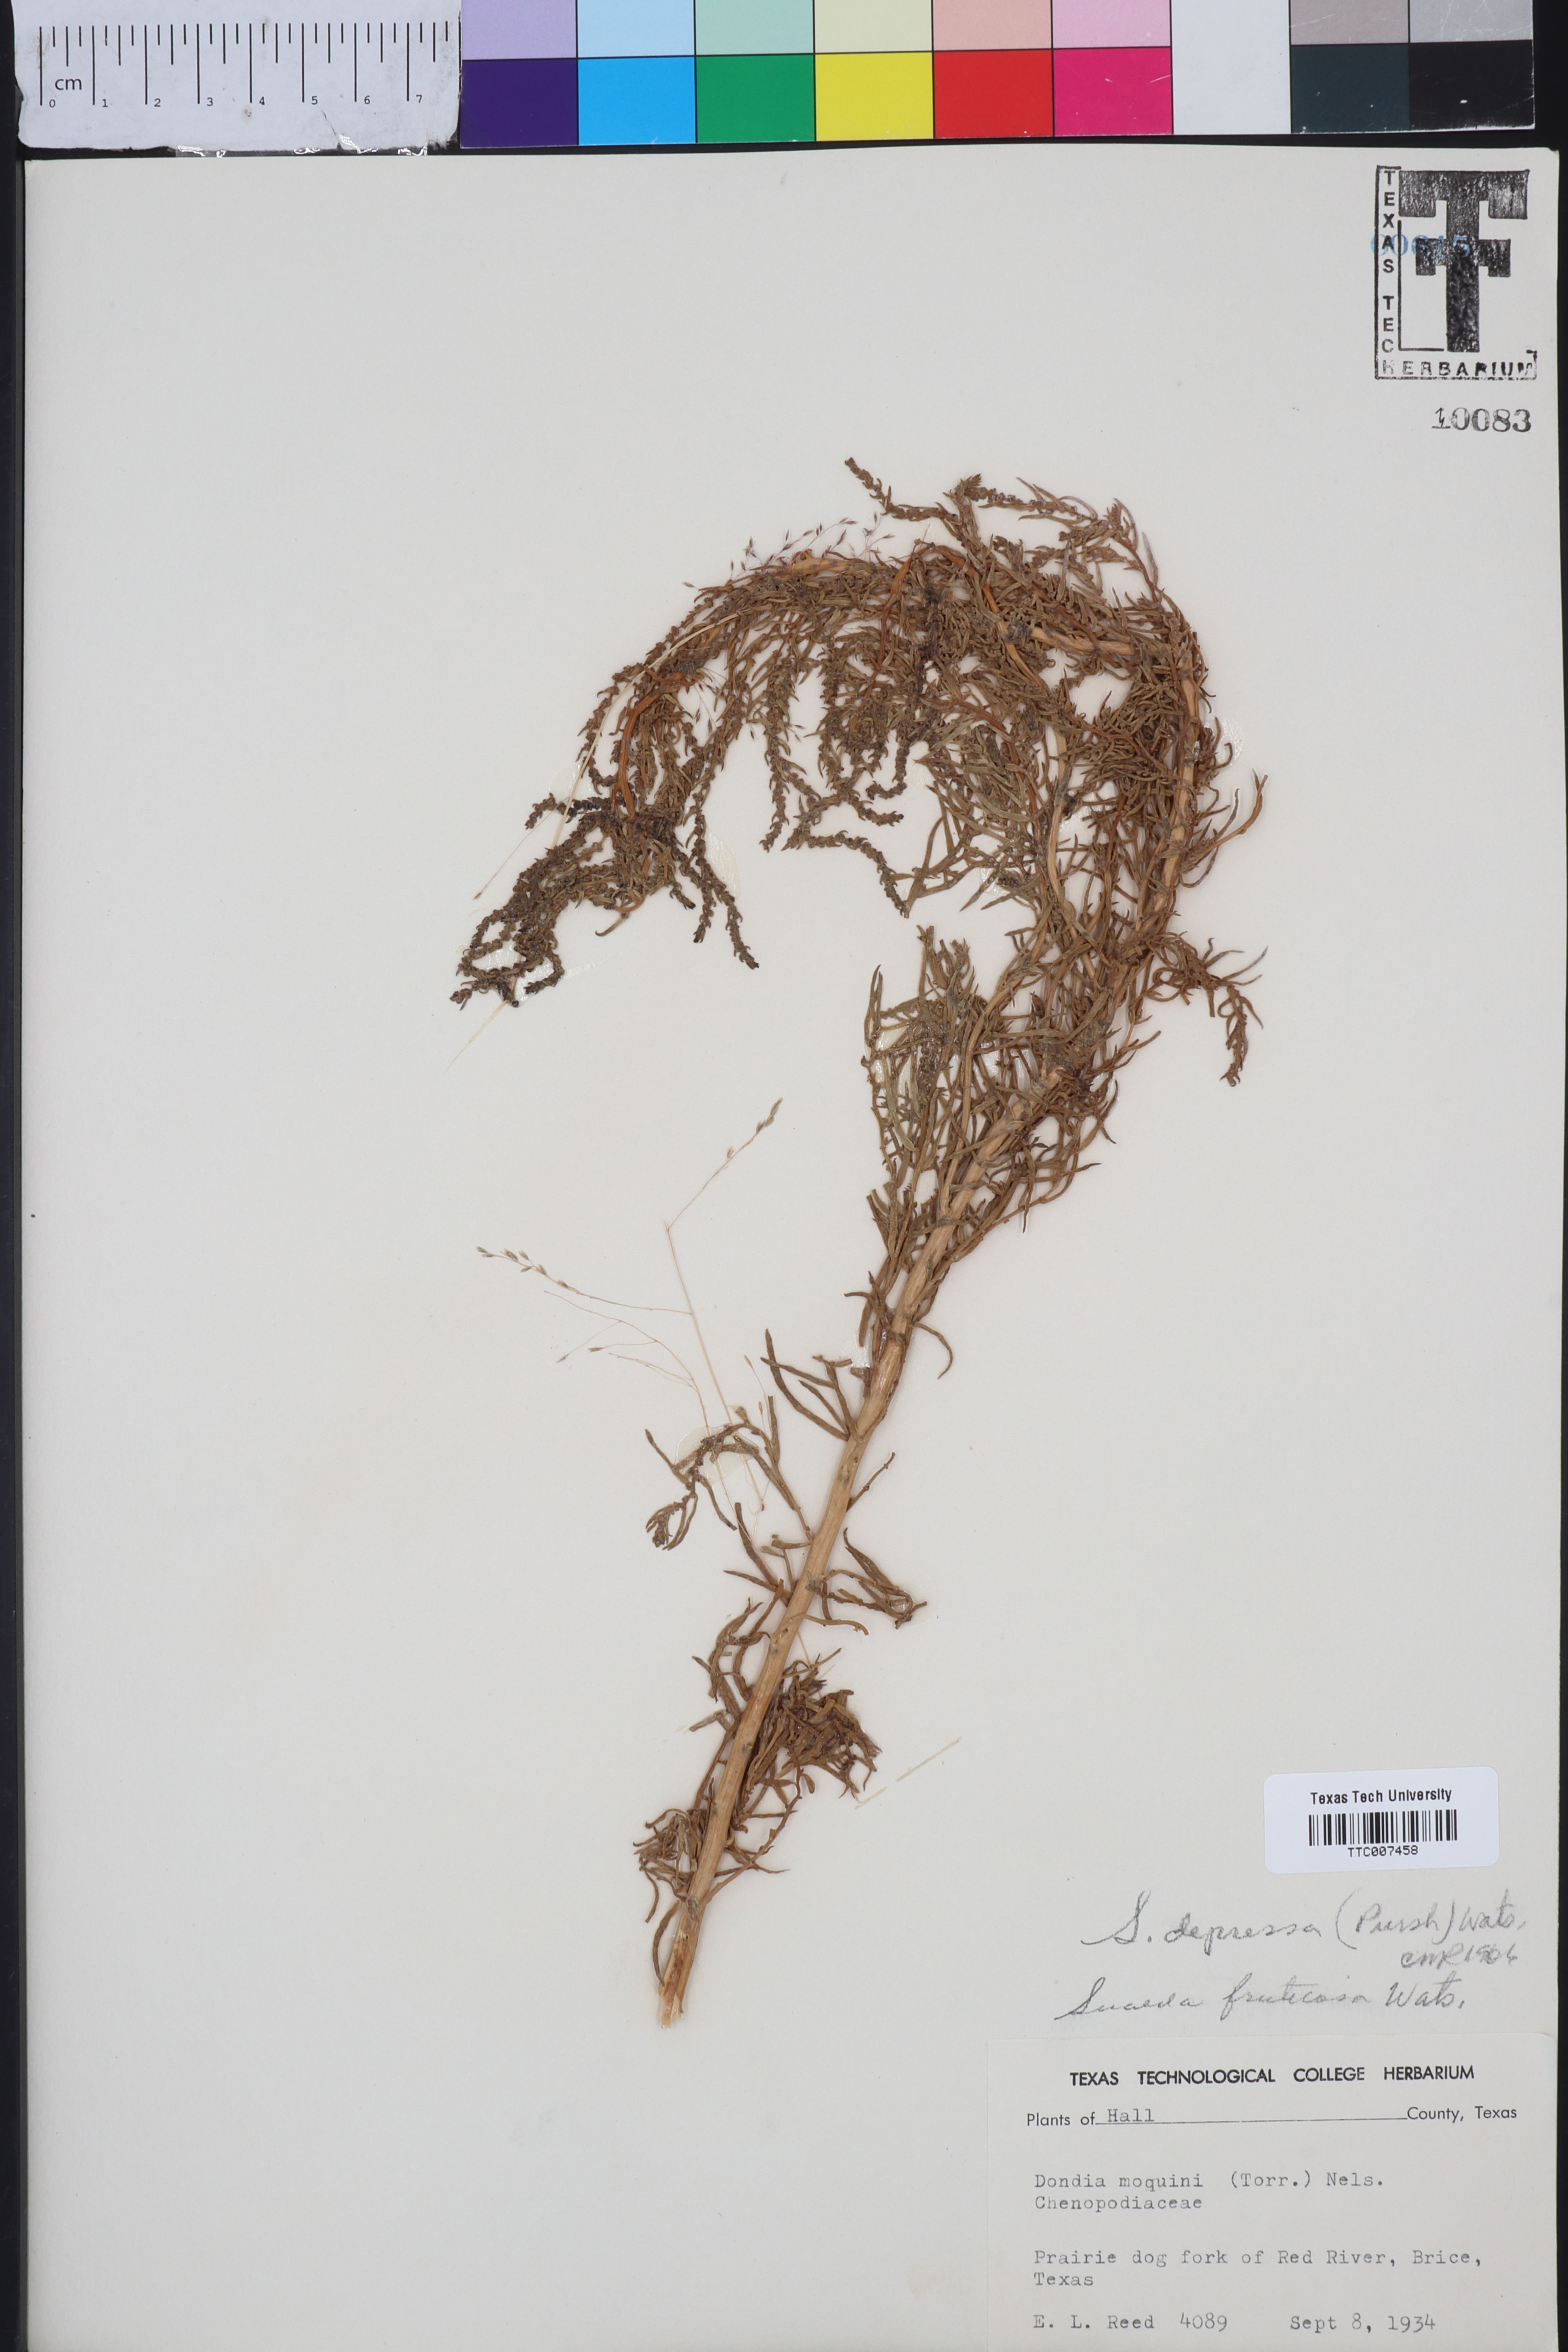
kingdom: Plantae
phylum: Tracheophyta
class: Magnoliopsida
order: Caryophyllales
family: Amaranthaceae
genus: Suaeda
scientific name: Suaeda calceoliformis
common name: Pursh's seepweed
